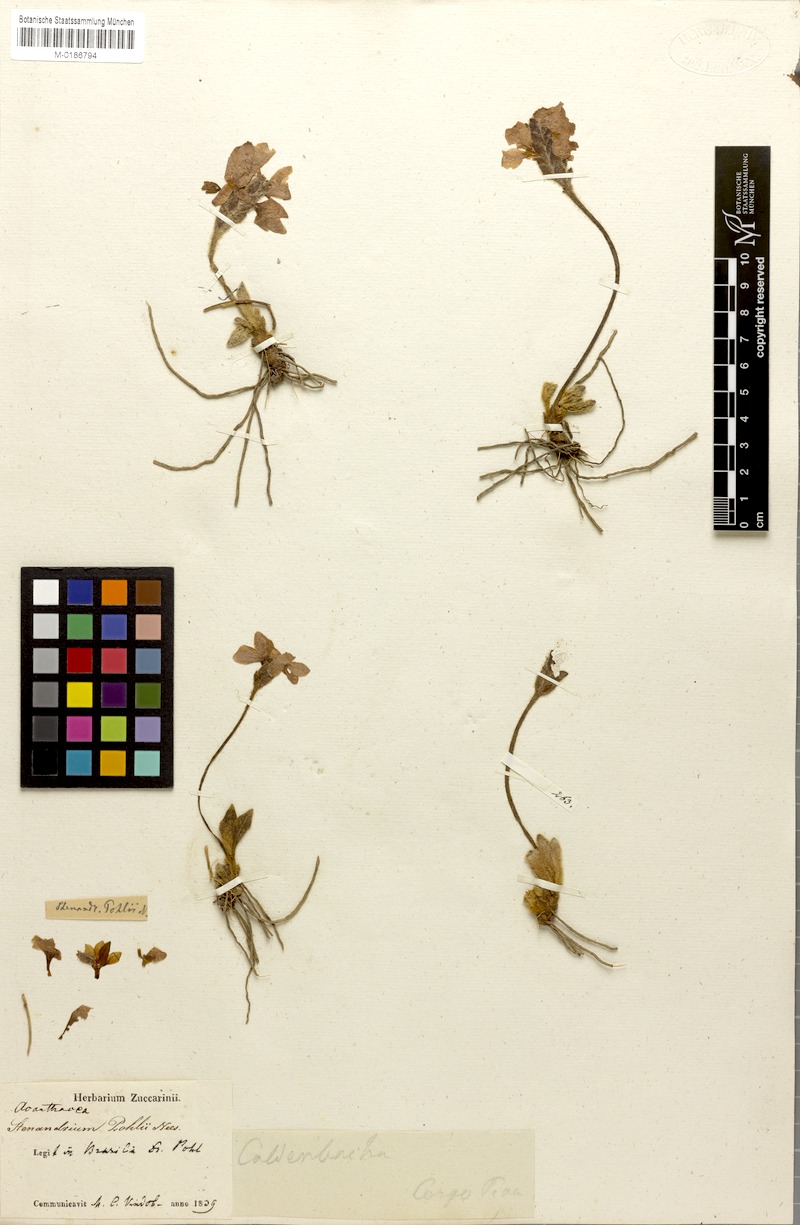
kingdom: Plantae
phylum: Tracheophyta
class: Magnoliopsida
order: Lamiales
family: Acanthaceae
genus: Stenandrium
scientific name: Stenandrium pohlii
